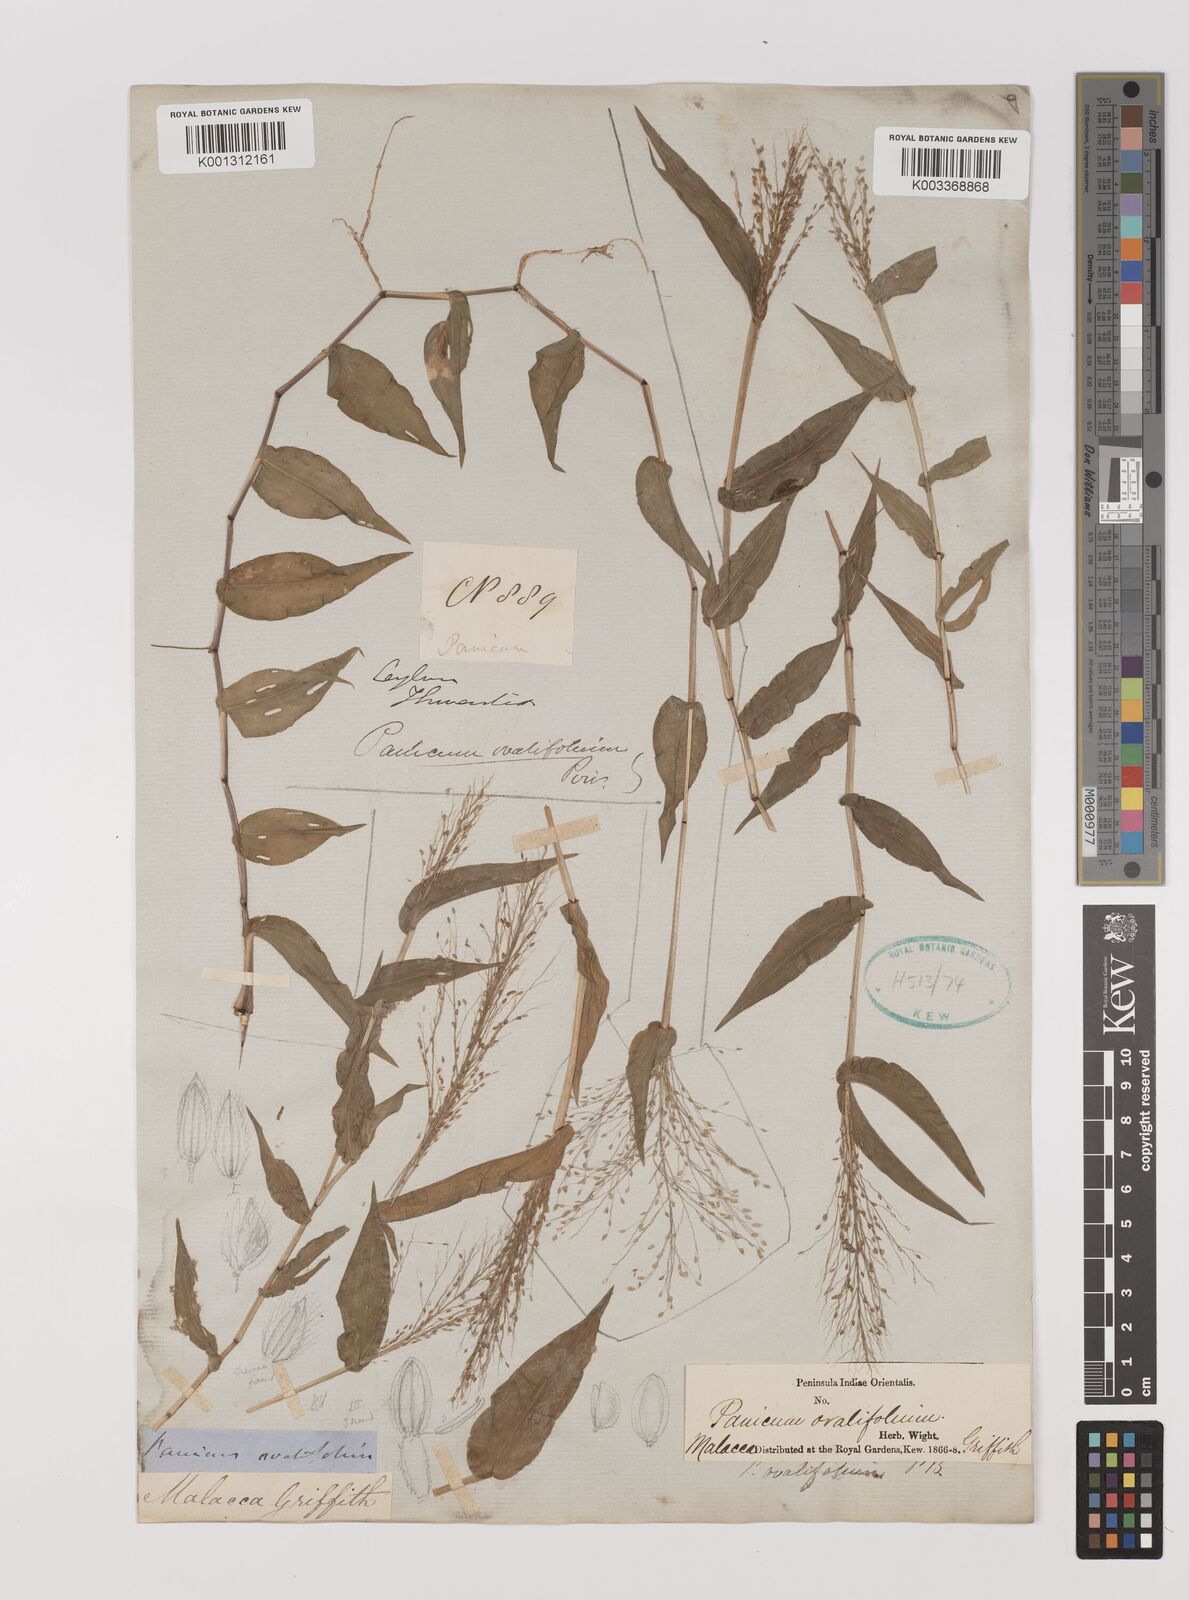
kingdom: Plantae
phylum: Tracheophyta
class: Liliopsida
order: Poales
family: Poaceae
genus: Digitaria
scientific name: Digitaria ciliaris
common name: Tropical finger-grass
